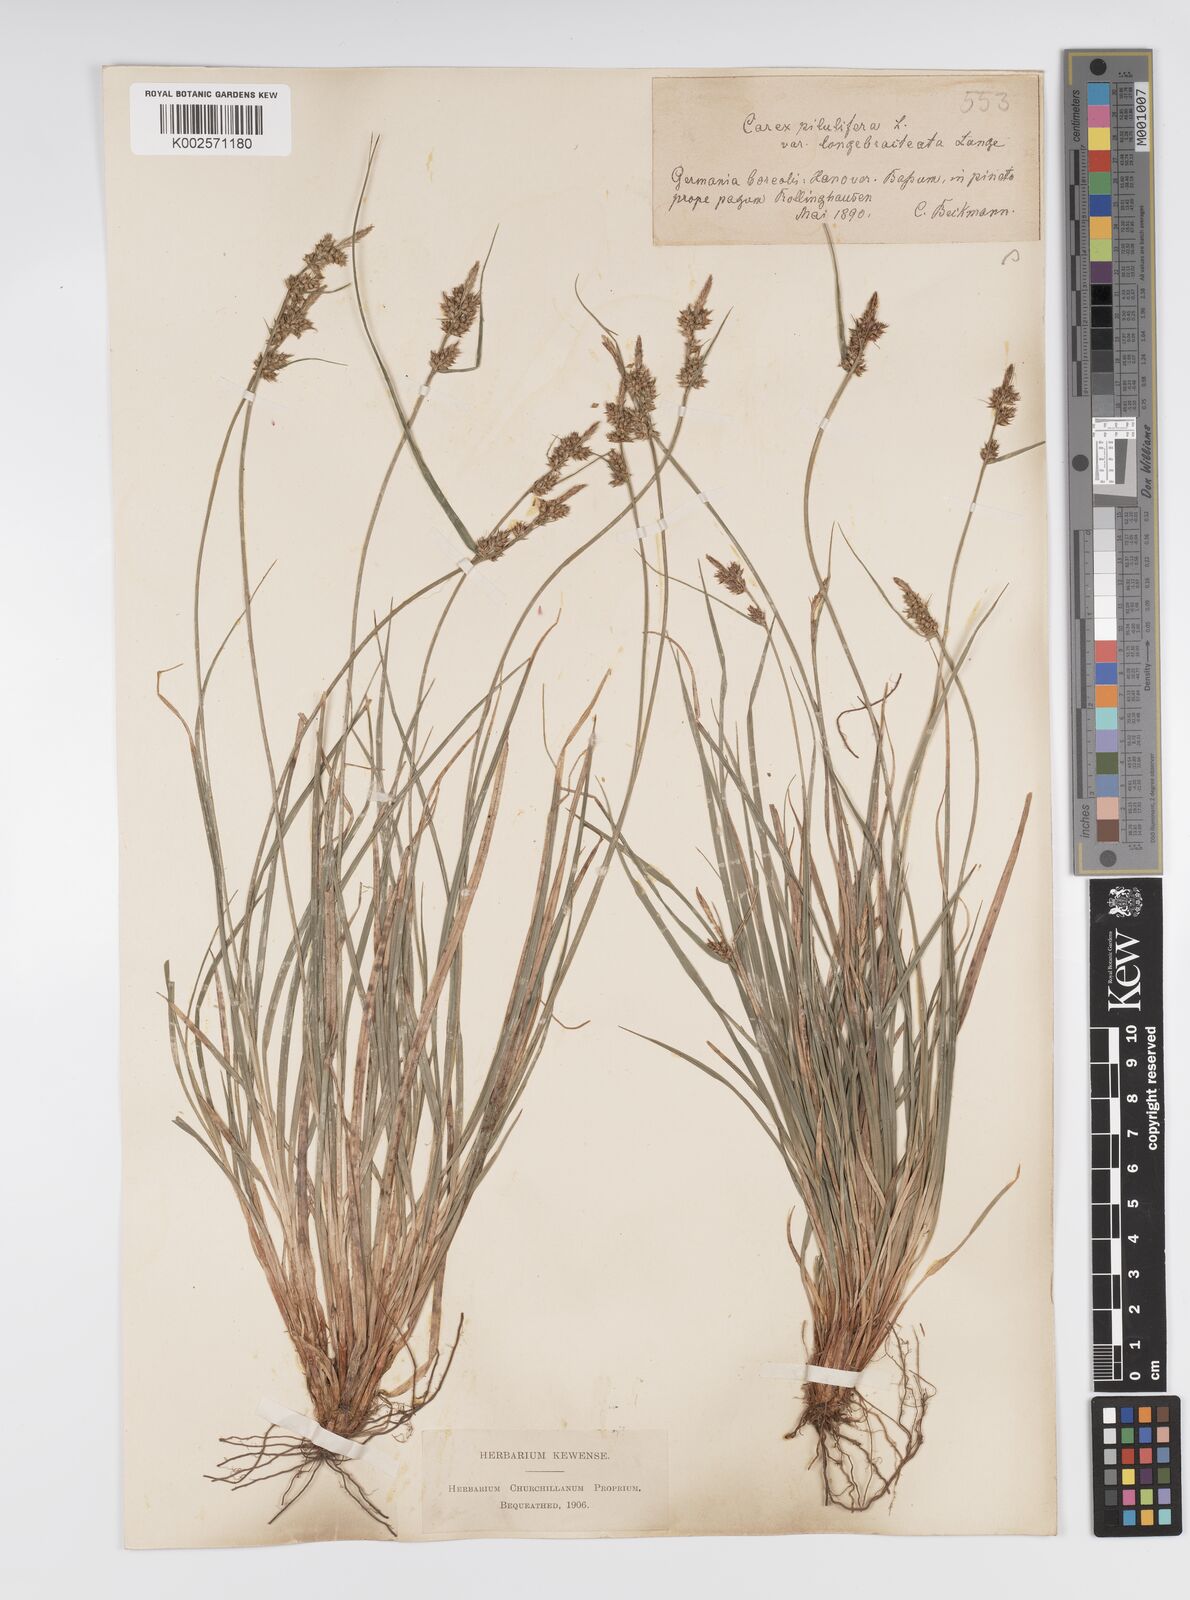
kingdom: Plantae
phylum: Tracheophyta
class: Liliopsida
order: Poales
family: Cyperaceae
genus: Carex
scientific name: Carex pilulifera
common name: Pill sedge
